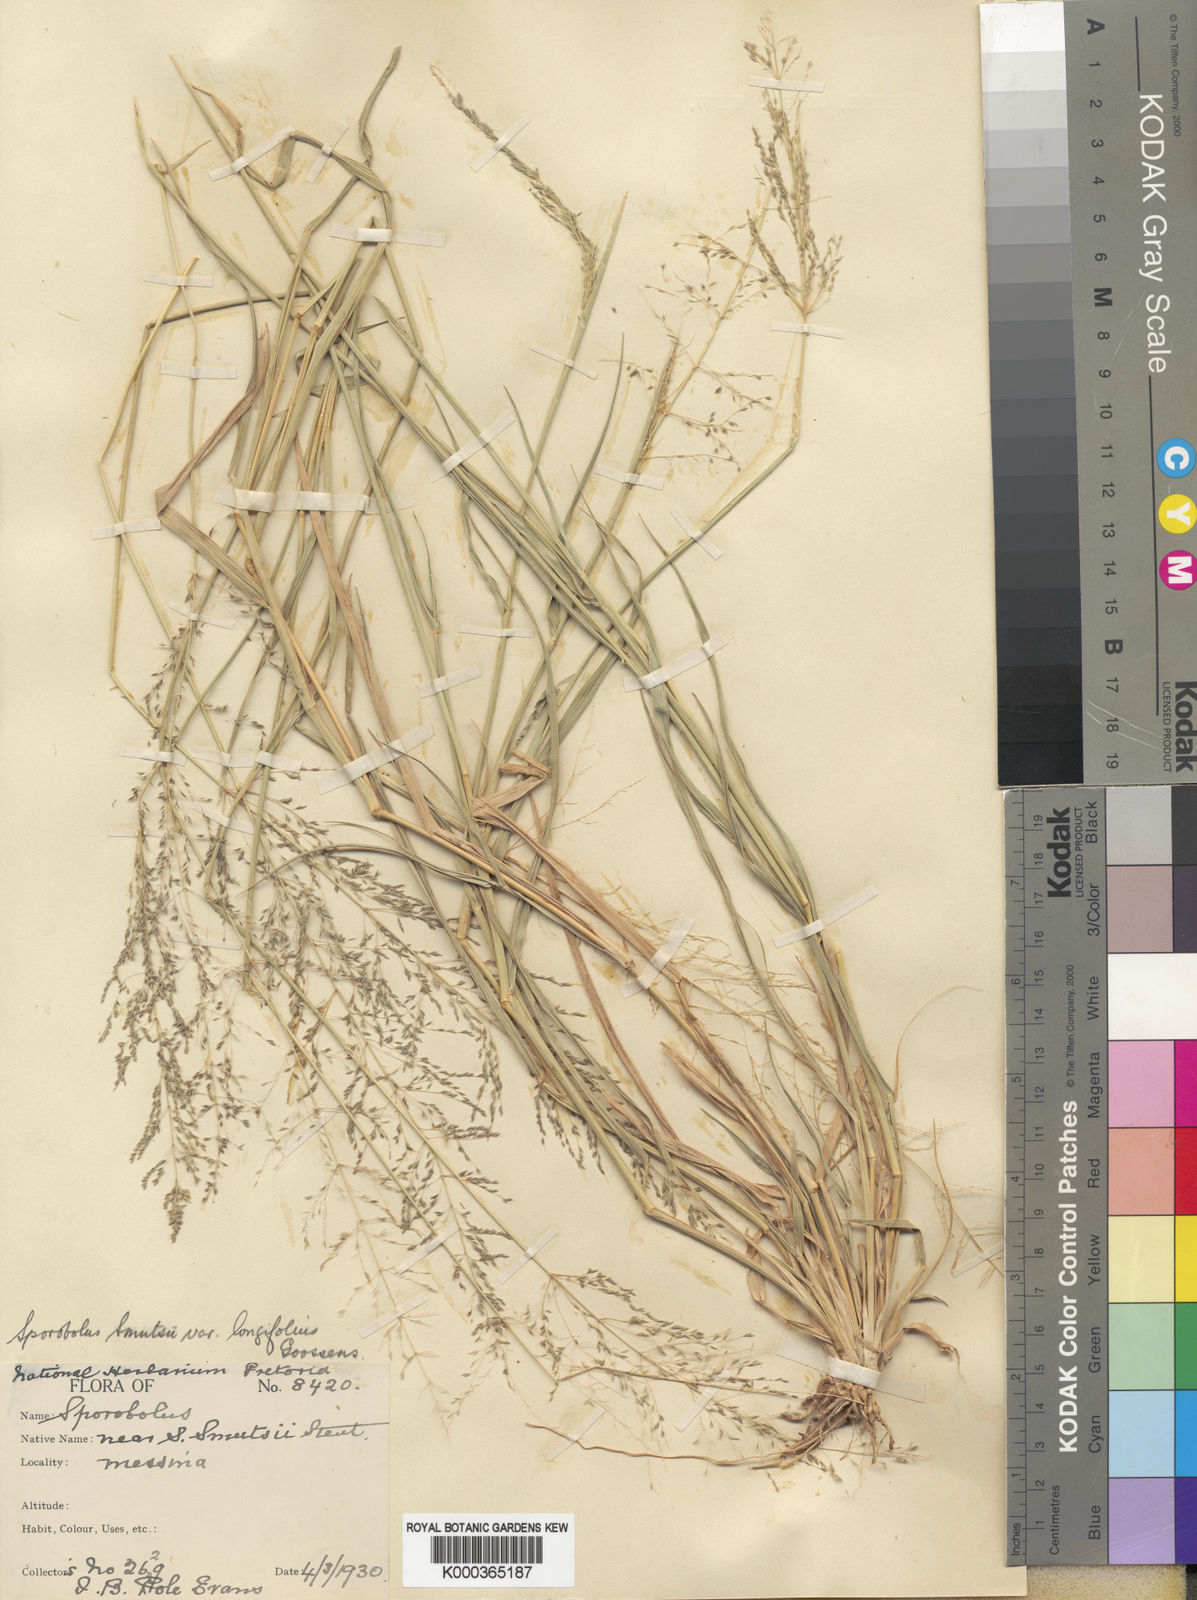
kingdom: Plantae
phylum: Tracheophyta
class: Liliopsida
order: Poales
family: Poaceae
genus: Sporobolus
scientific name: Sporobolus ioclados
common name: Pan dropseed
